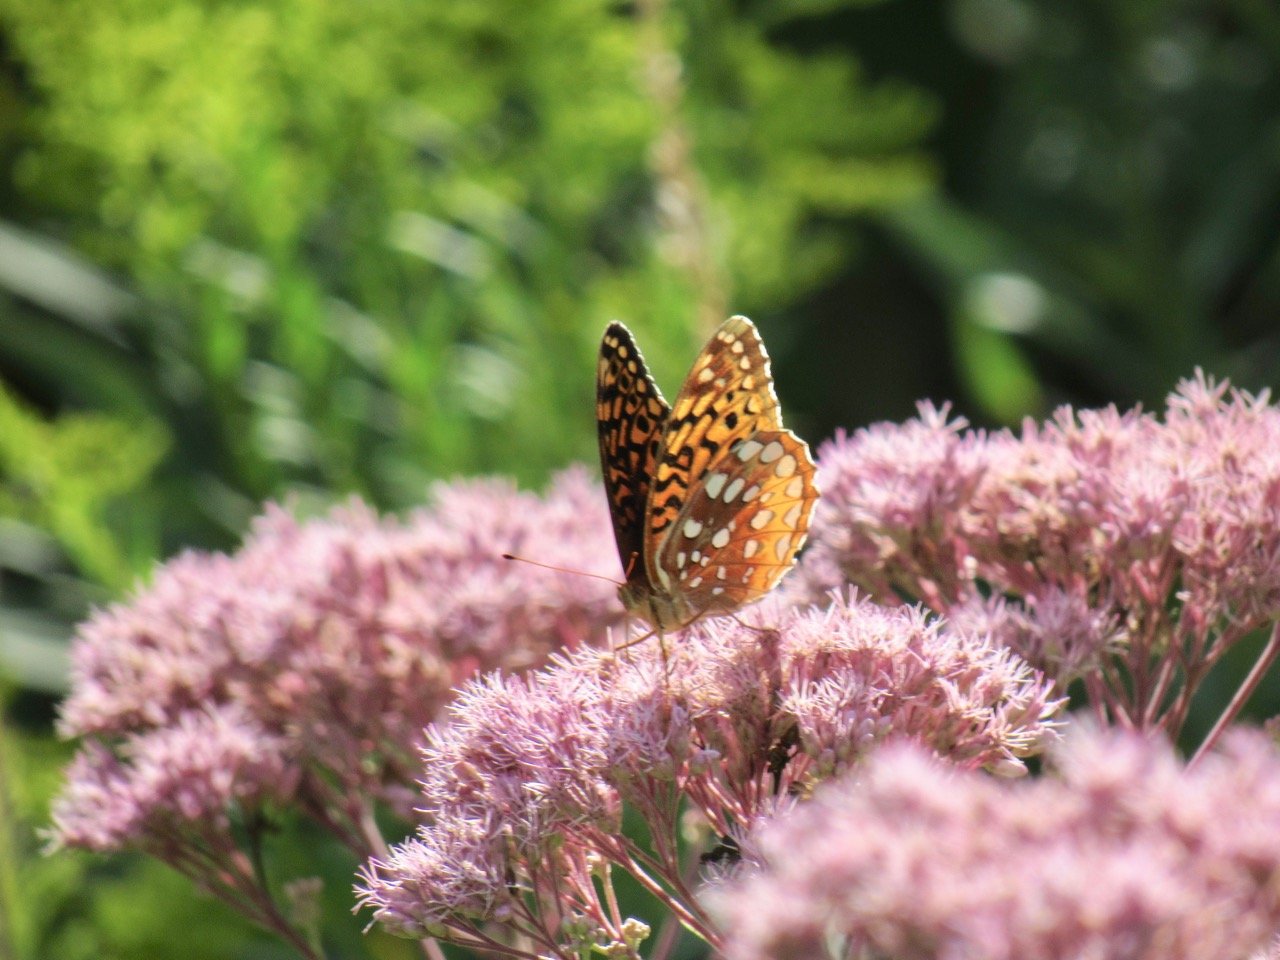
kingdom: Animalia
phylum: Arthropoda
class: Insecta
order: Lepidoptera
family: Nymphalidae
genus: Speyeria
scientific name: Speyeria cybele
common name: Great Spangled Fritillary
